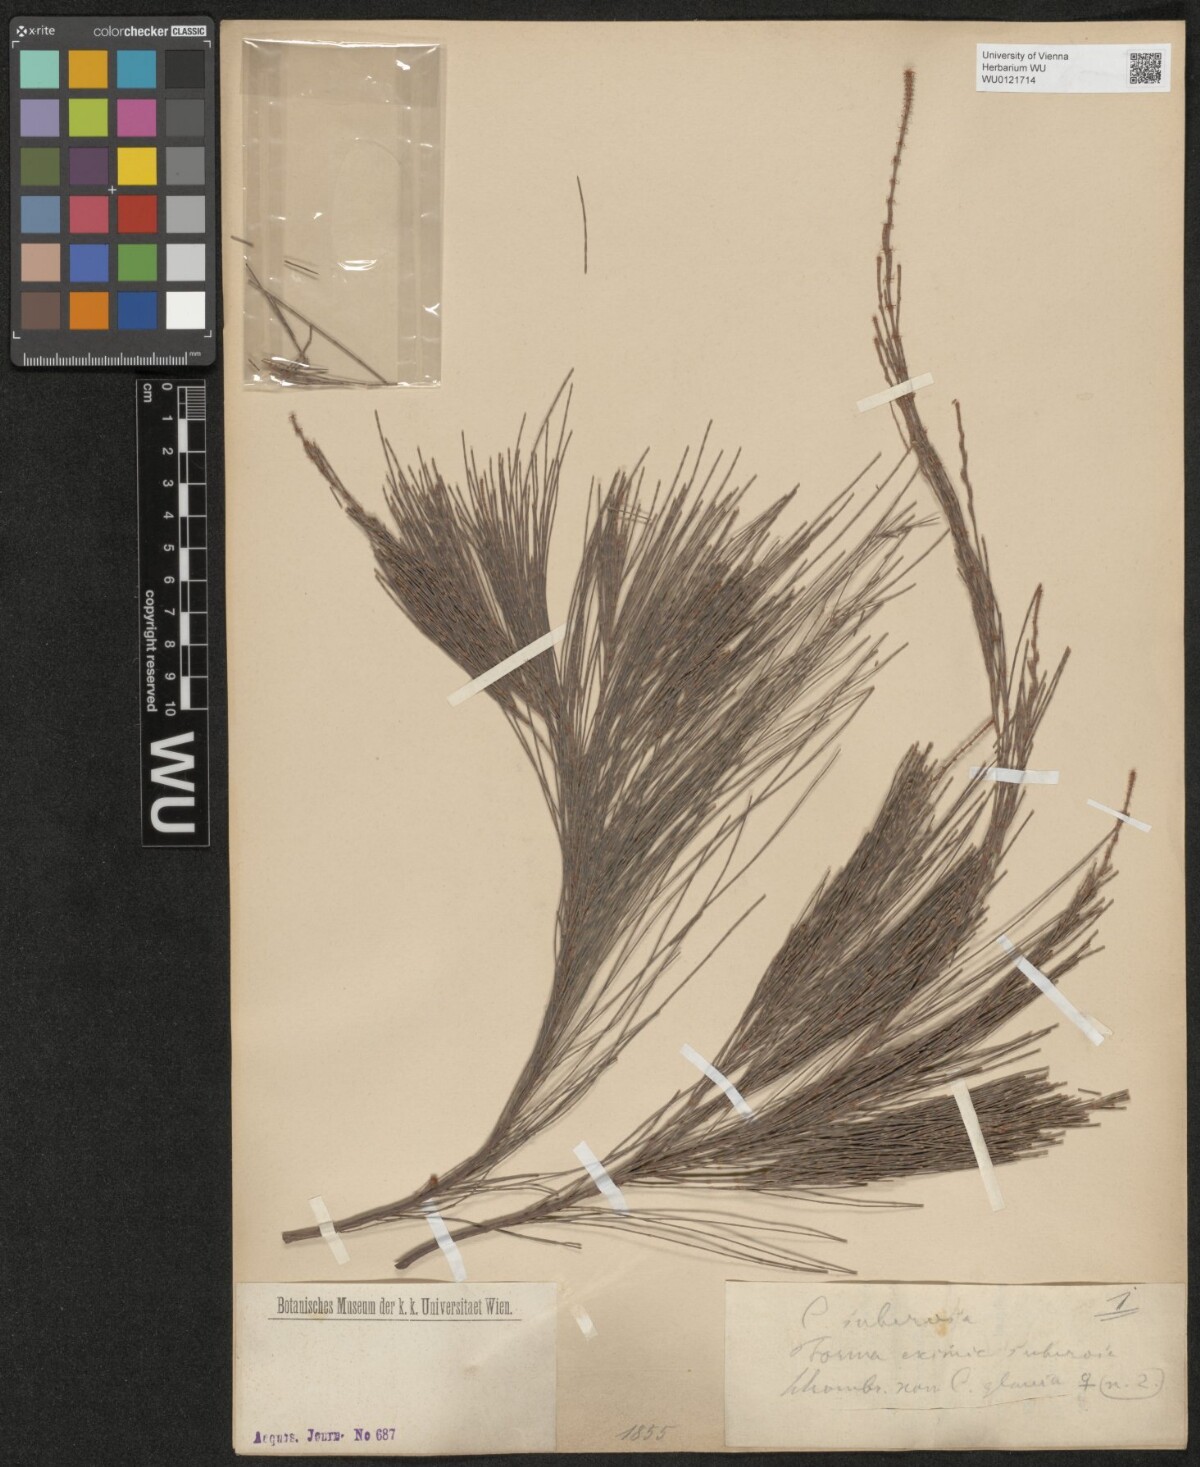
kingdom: Plantae
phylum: Tracheophyta
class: Magnoliopsida
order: Fagales
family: Casuarinaceae
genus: Allocasuarina
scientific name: Allocasuarina littoralis
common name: Black she-oak
